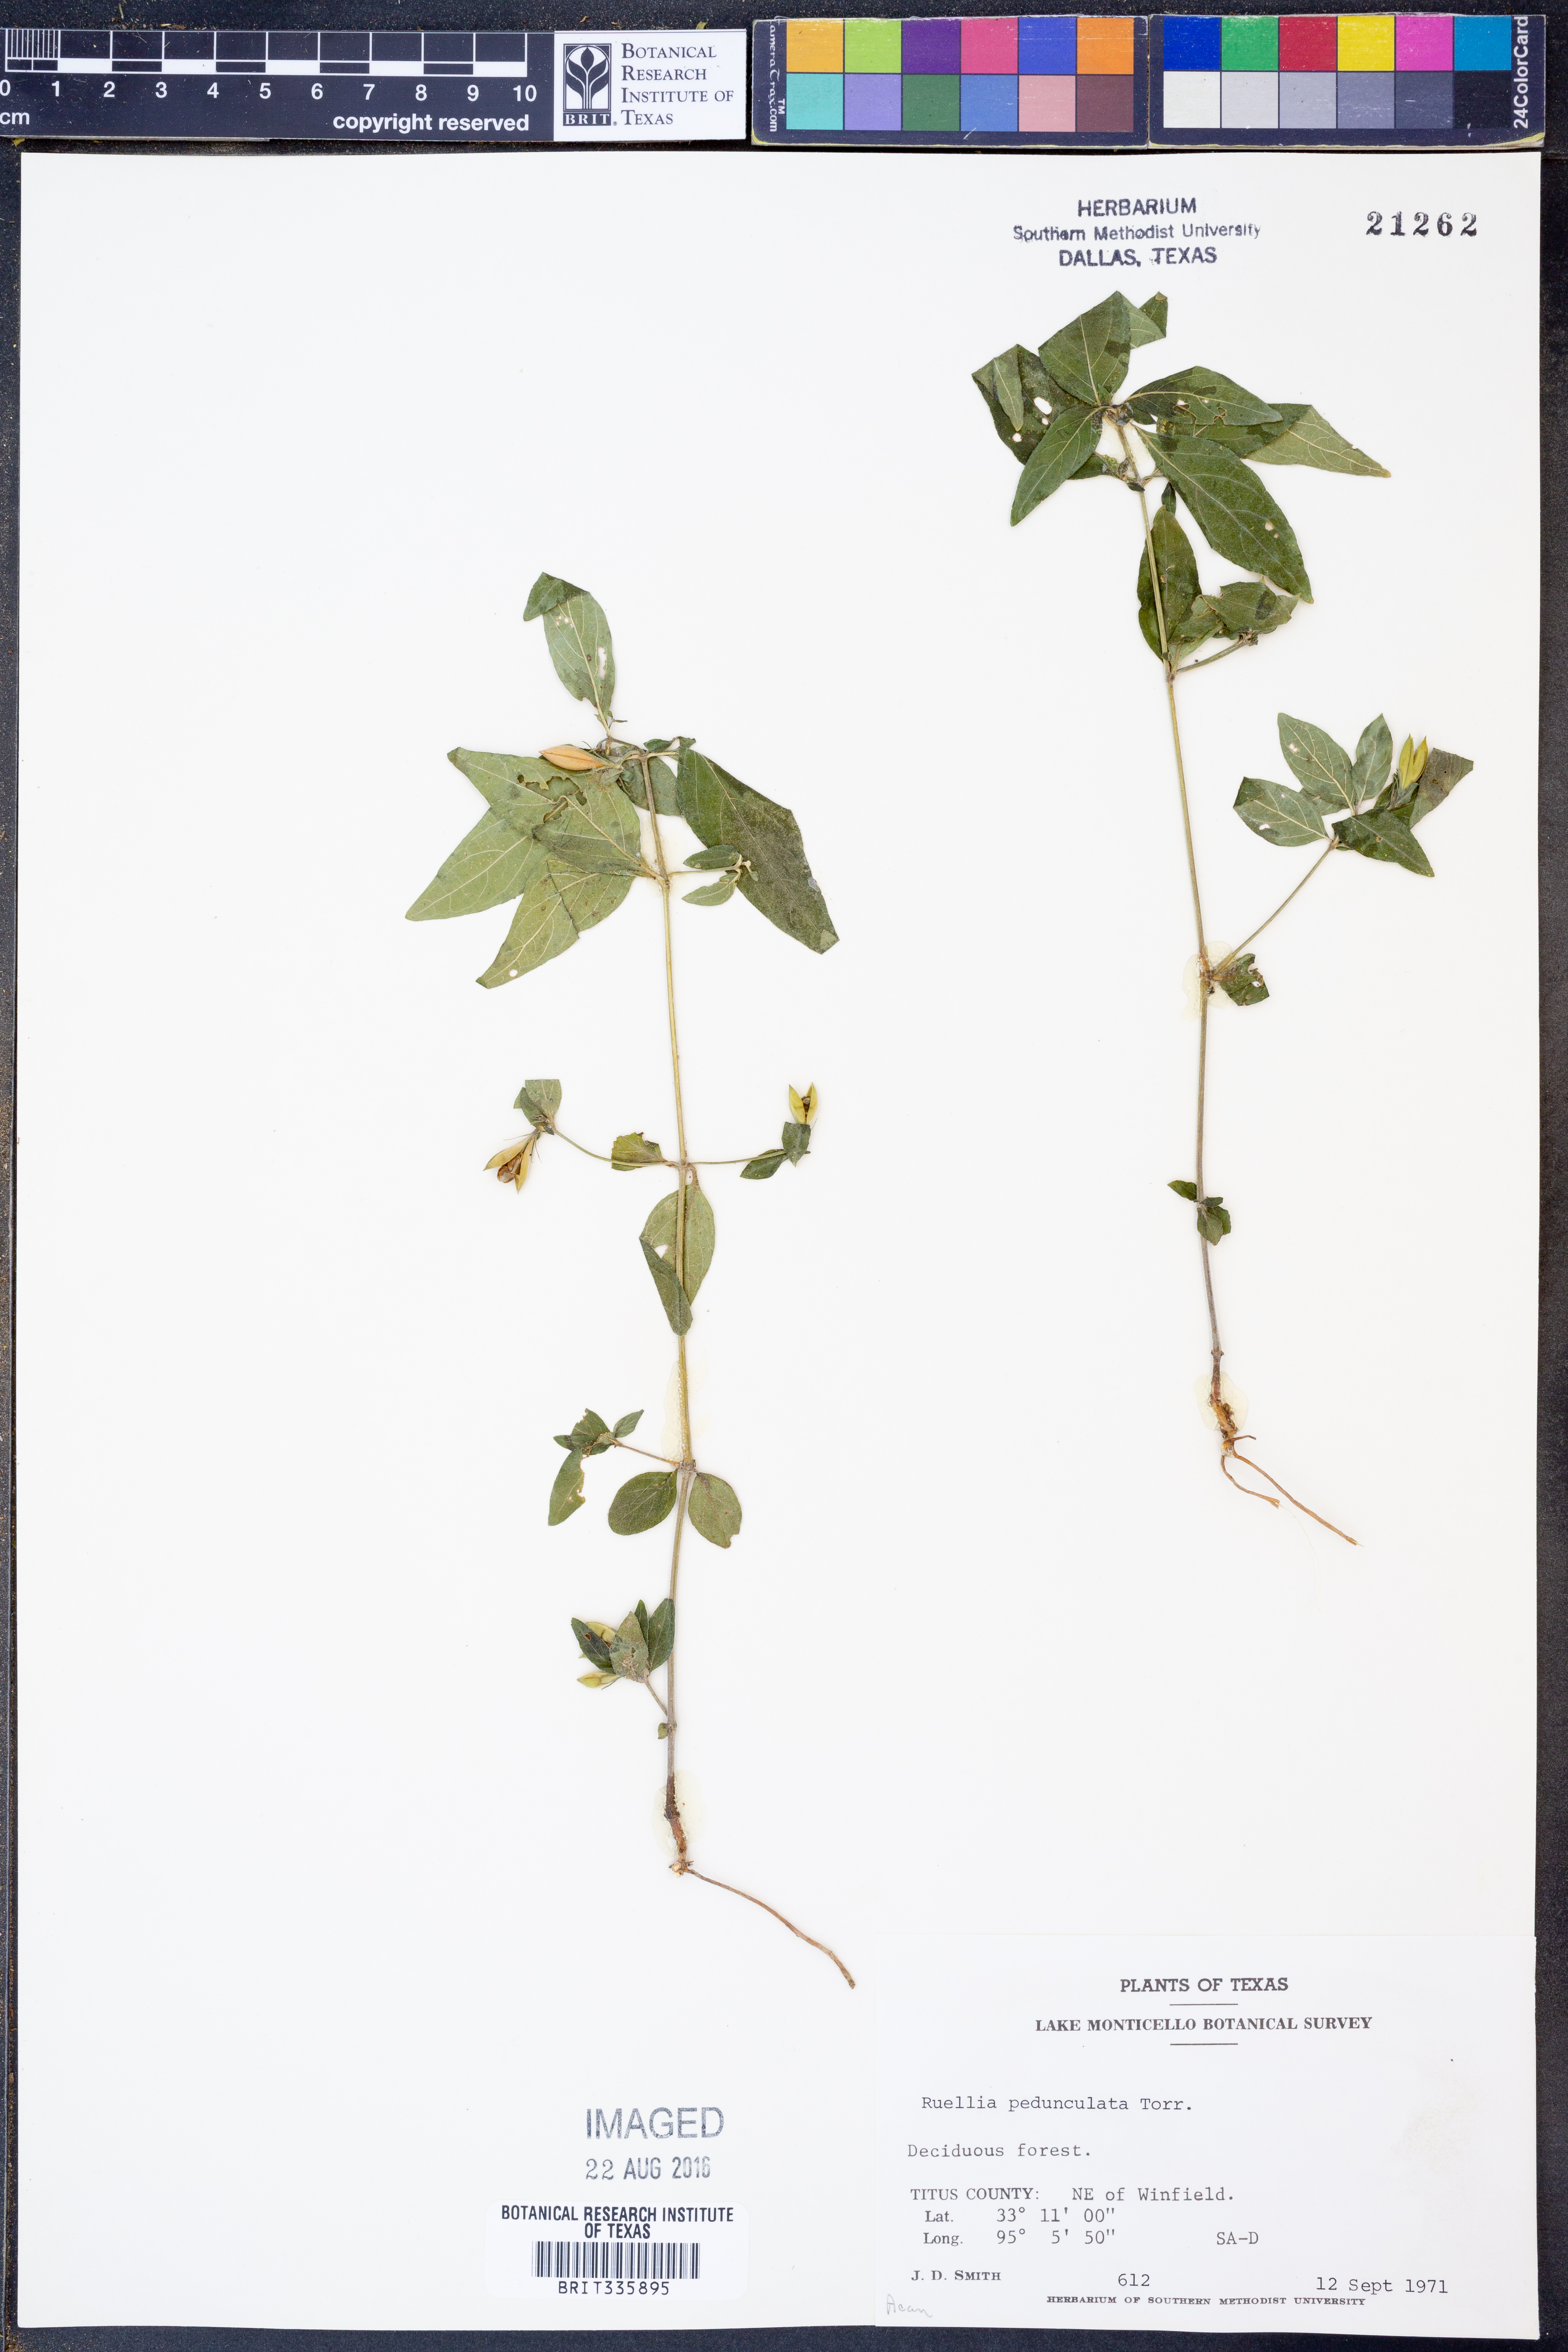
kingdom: Plantae
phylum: Tracheophyta
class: Magnoliopsida
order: Lamiales
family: Acanthaceae
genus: Ruellia
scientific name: Ruellia pedunculata
